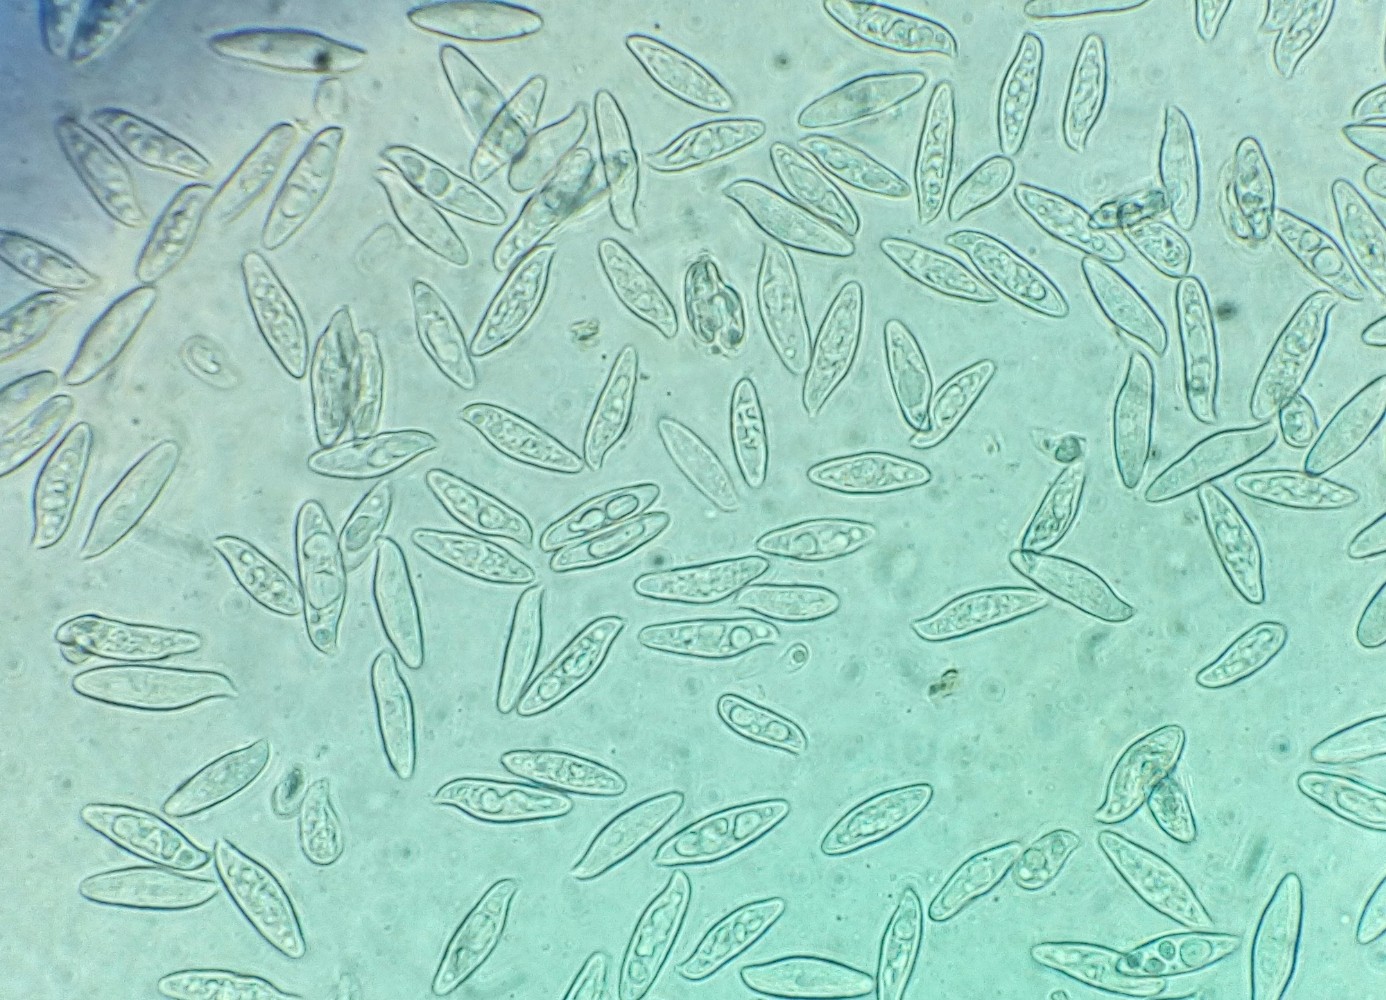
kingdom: Fungi
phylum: Basidiomycota
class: Agaricomycetes
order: Agaricales
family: Agaricaceae
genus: Lepiota
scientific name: Lepiota magnispora
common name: gulfnugget parasolhat
